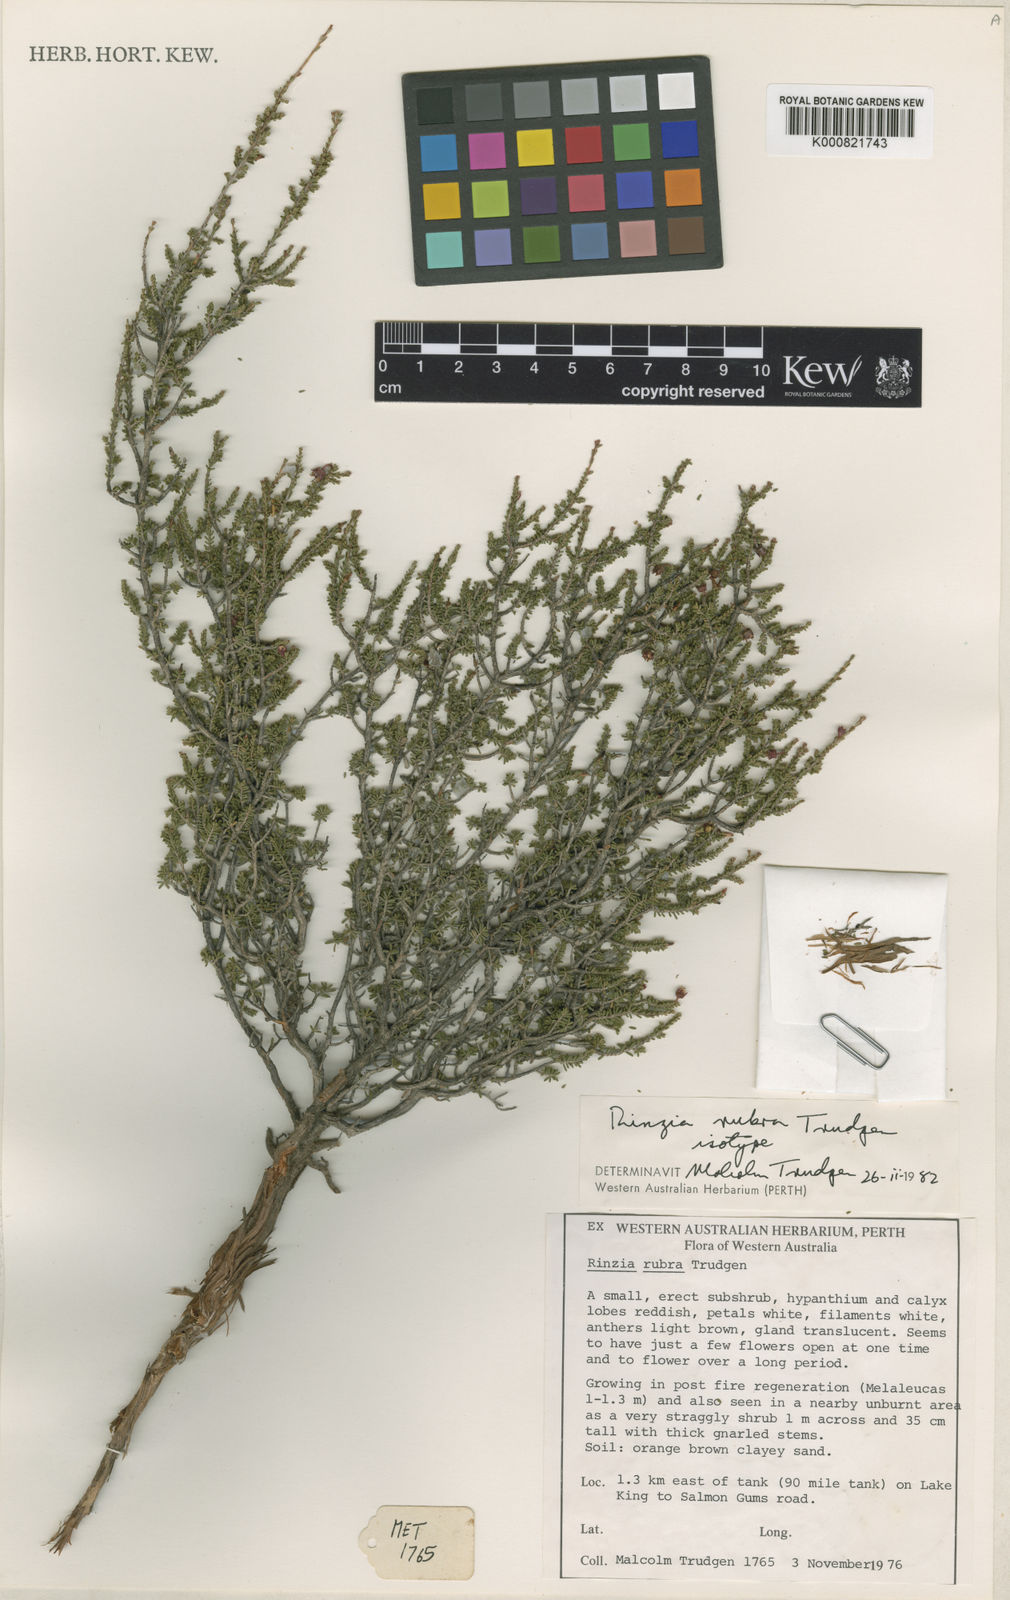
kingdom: Plantae
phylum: Tracheophyta
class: Magnoliopsida
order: Myrtales
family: Myrtaceae
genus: Rinzia
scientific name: Rinzia rubra
